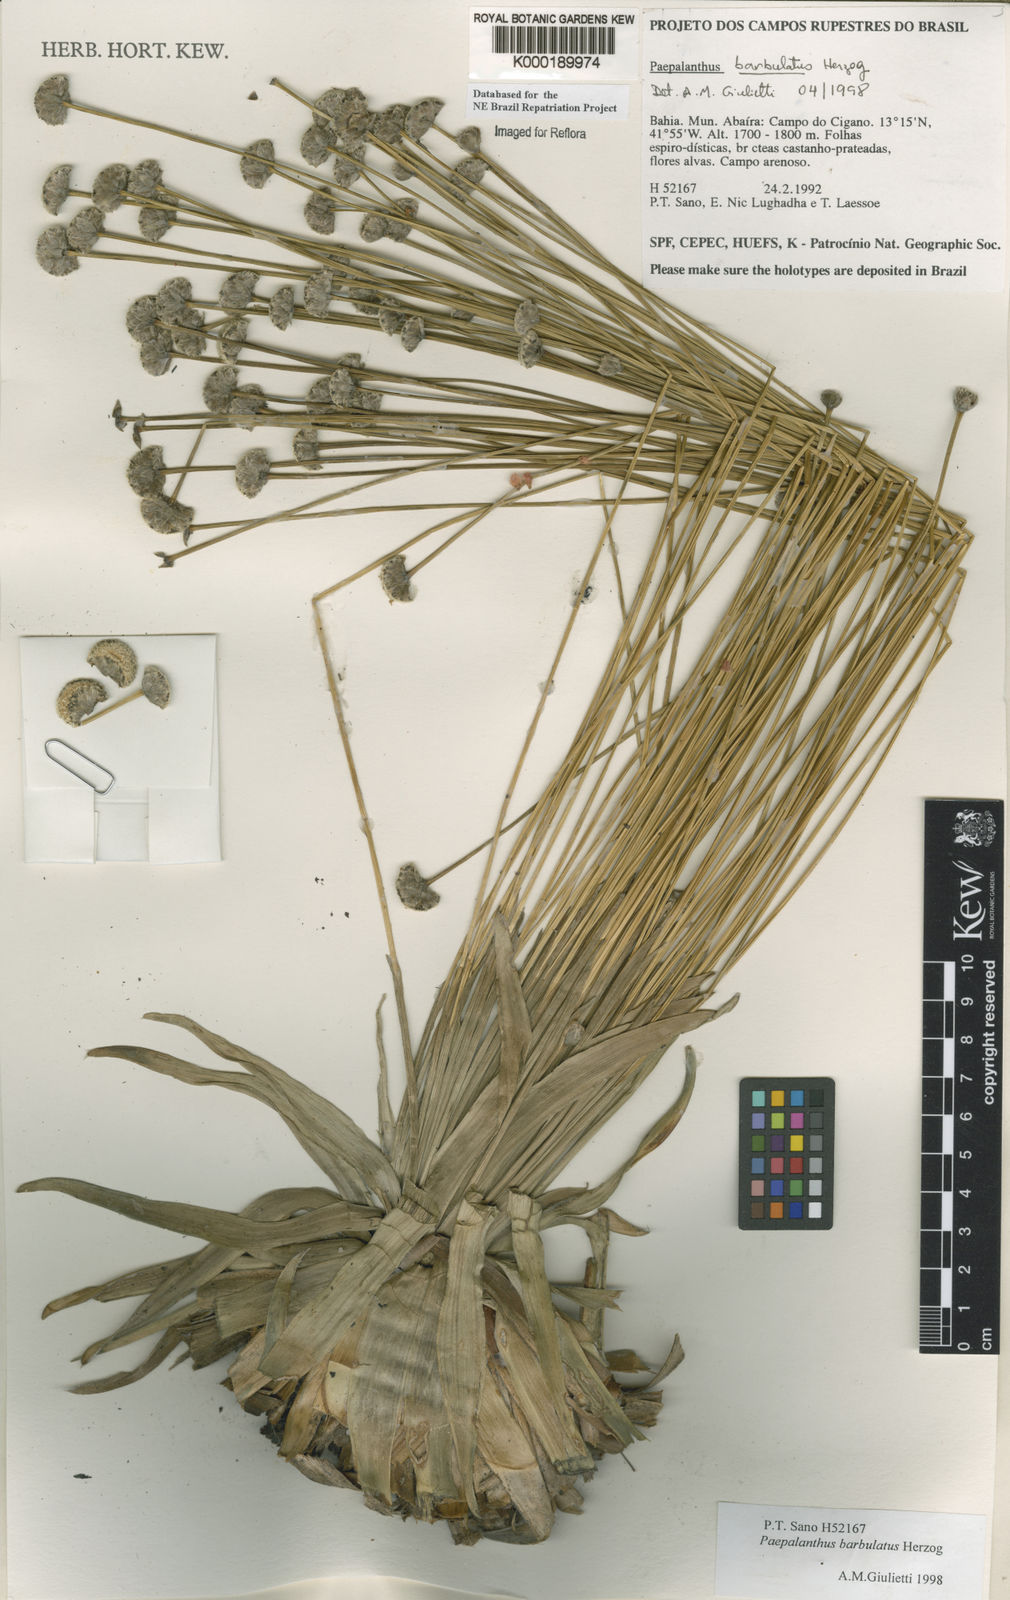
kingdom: Plantae
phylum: Tracheophyta
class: Liliopsida
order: Poales
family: Eriocaulaceae
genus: Paepalanthus
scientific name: Paepalanthus barbulatus
